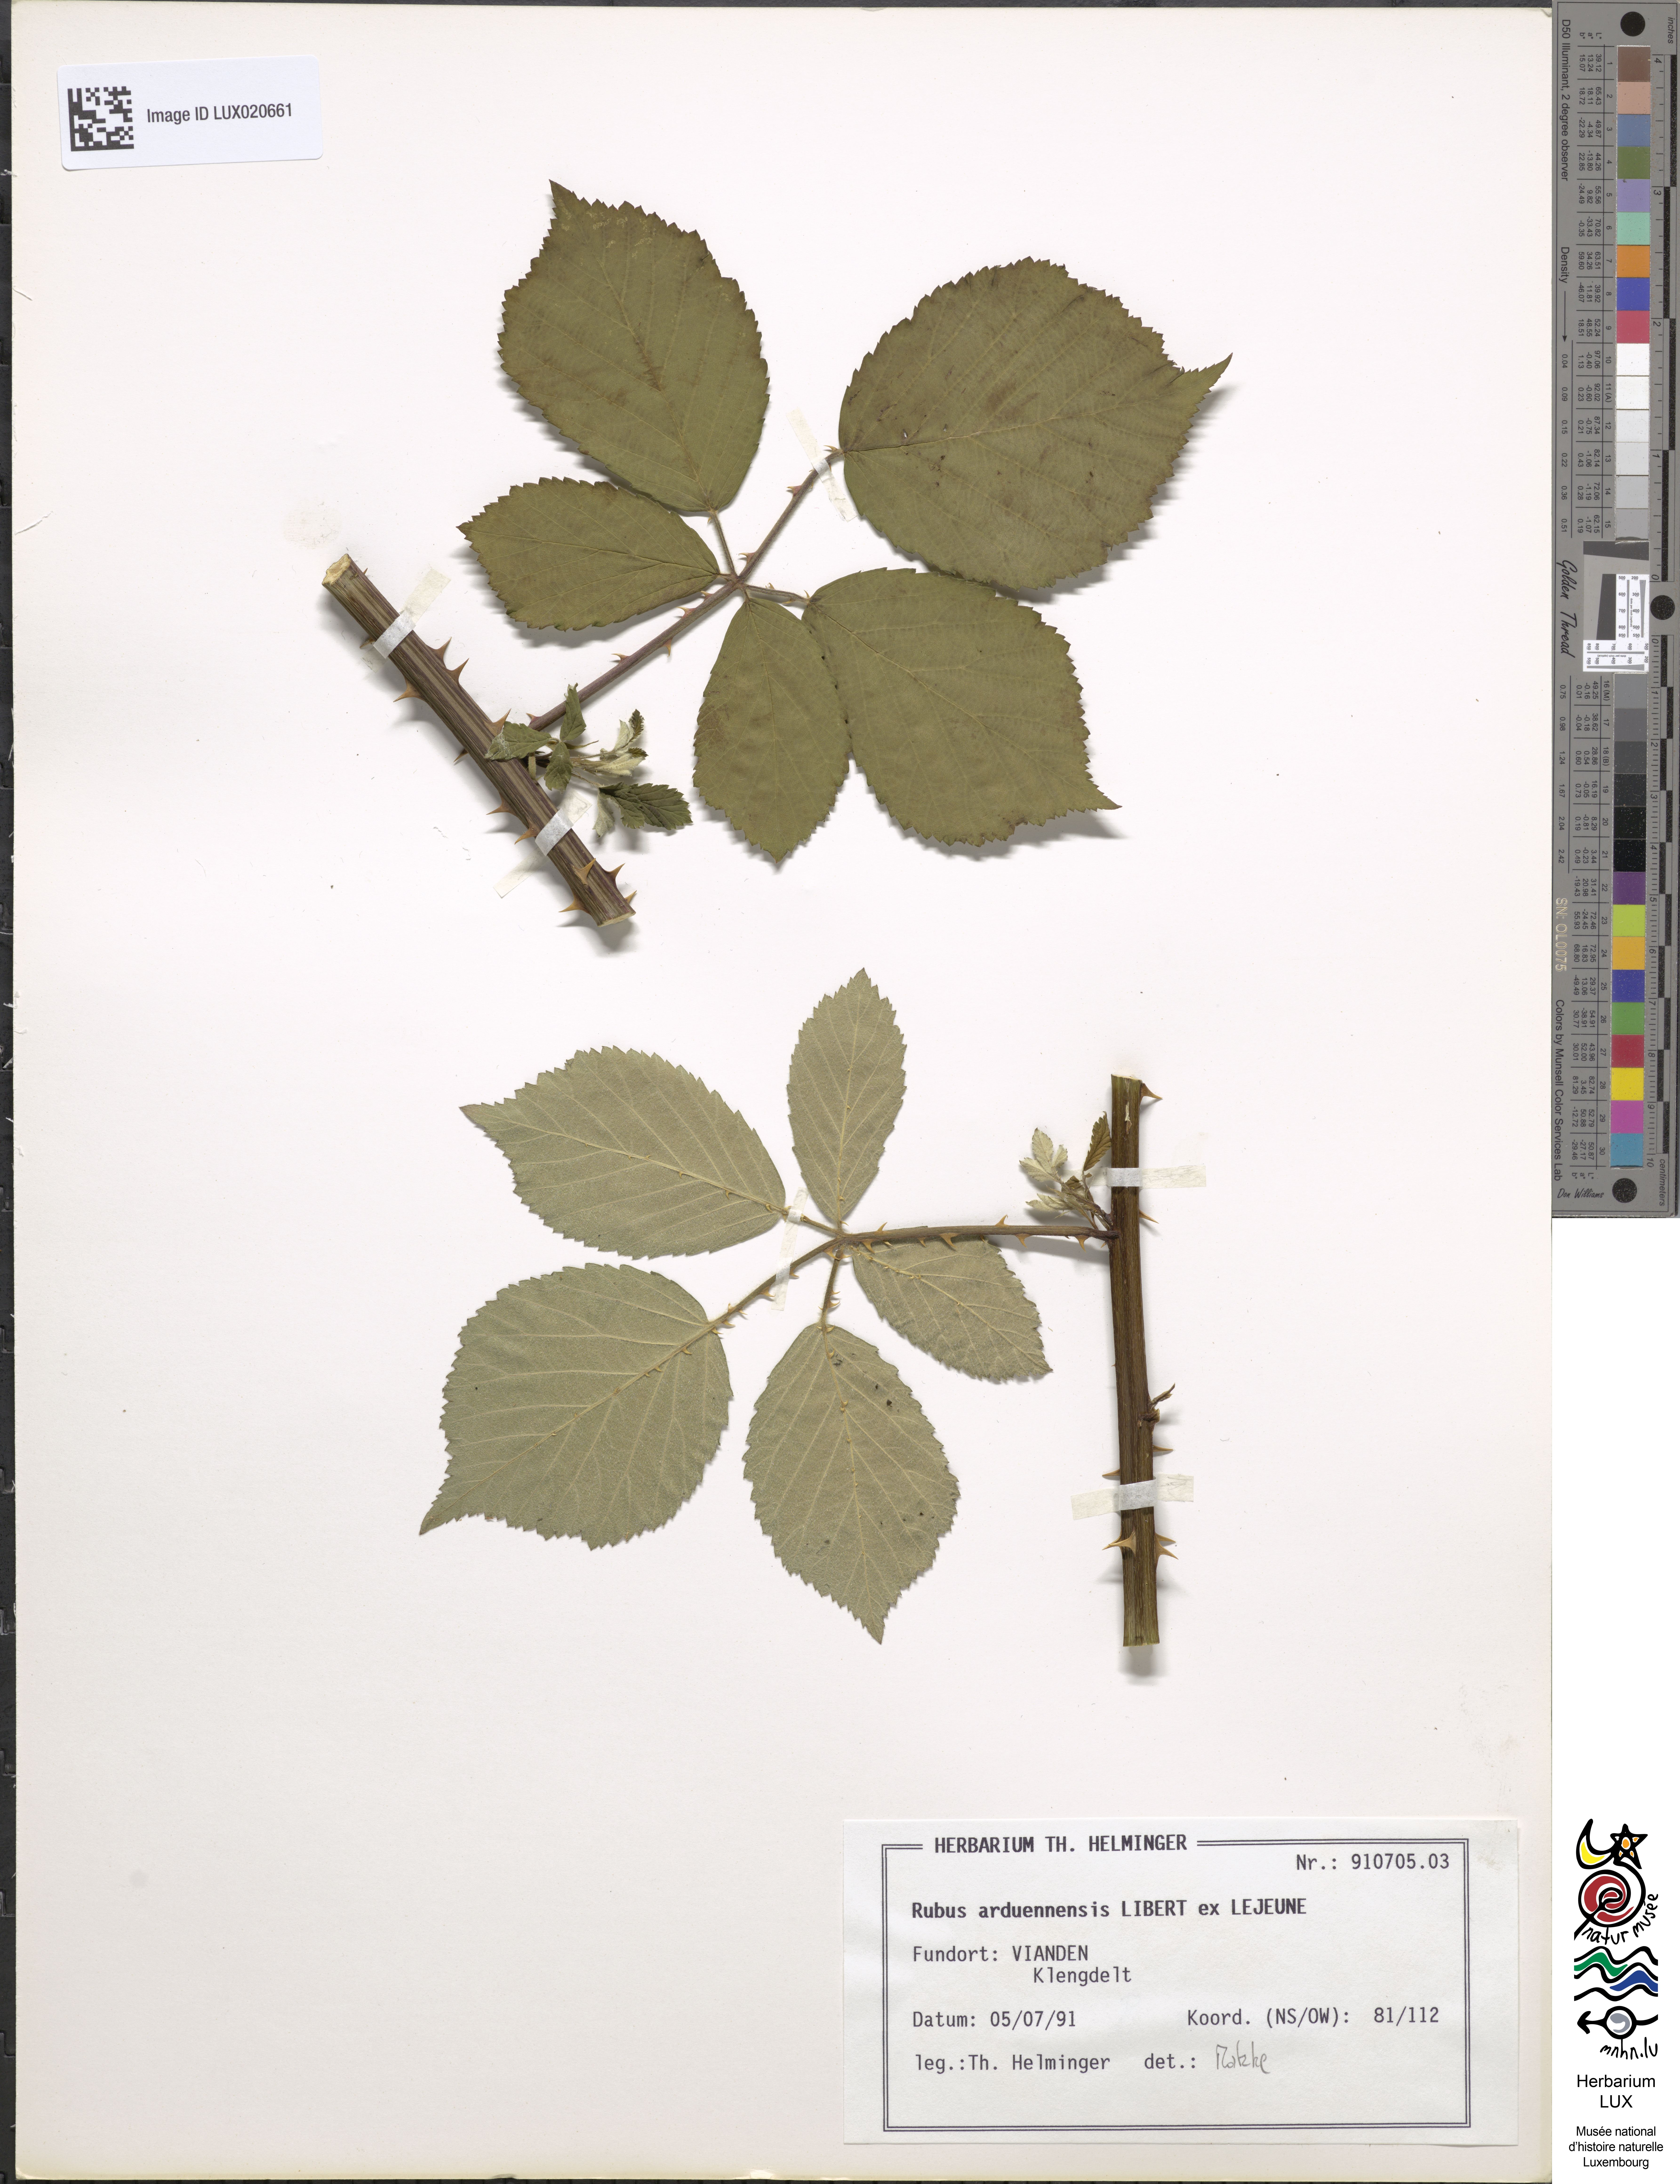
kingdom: Plantae
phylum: Tracheophyta
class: Magnoliopsida
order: Rosales
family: Rosaceae
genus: Rubus
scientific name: Rubus arduennensis
